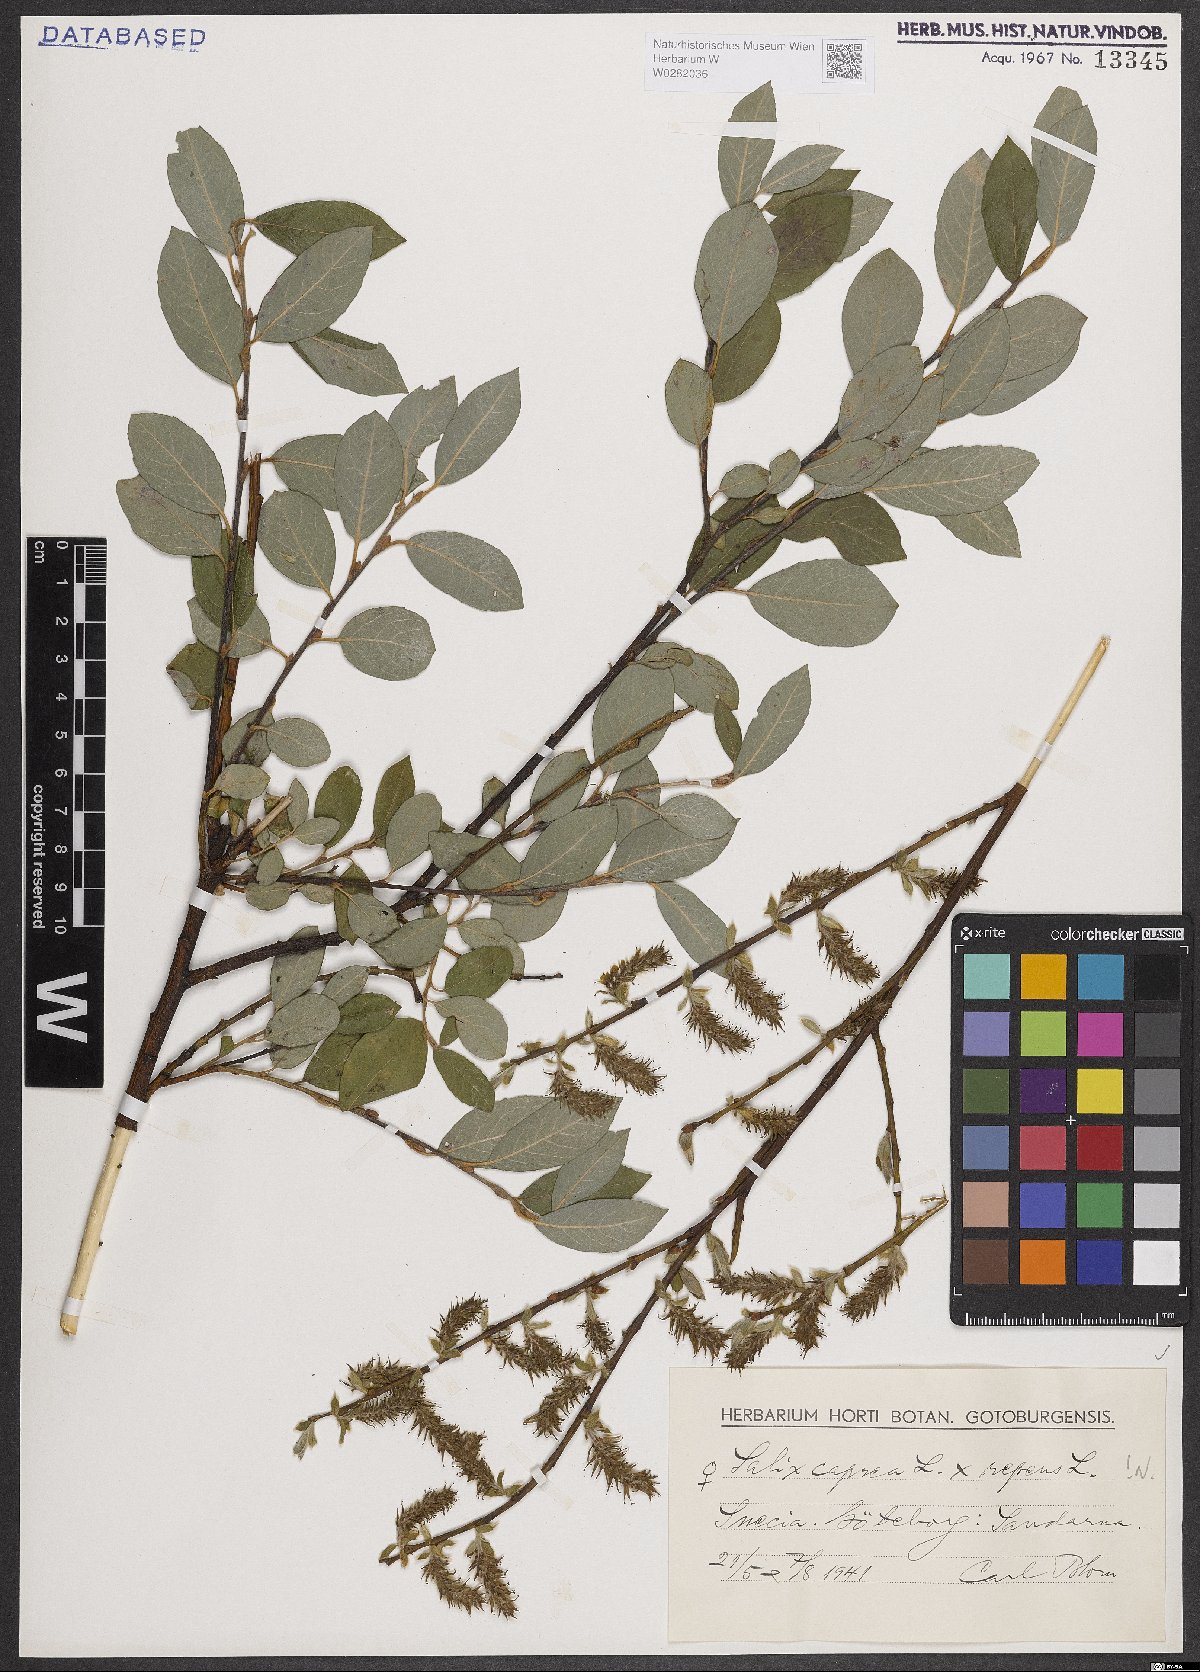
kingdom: Plantae
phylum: Tracheophyta
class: Magnoliopsida
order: Malpighiales
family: Salicaceae
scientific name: Salicaceae
